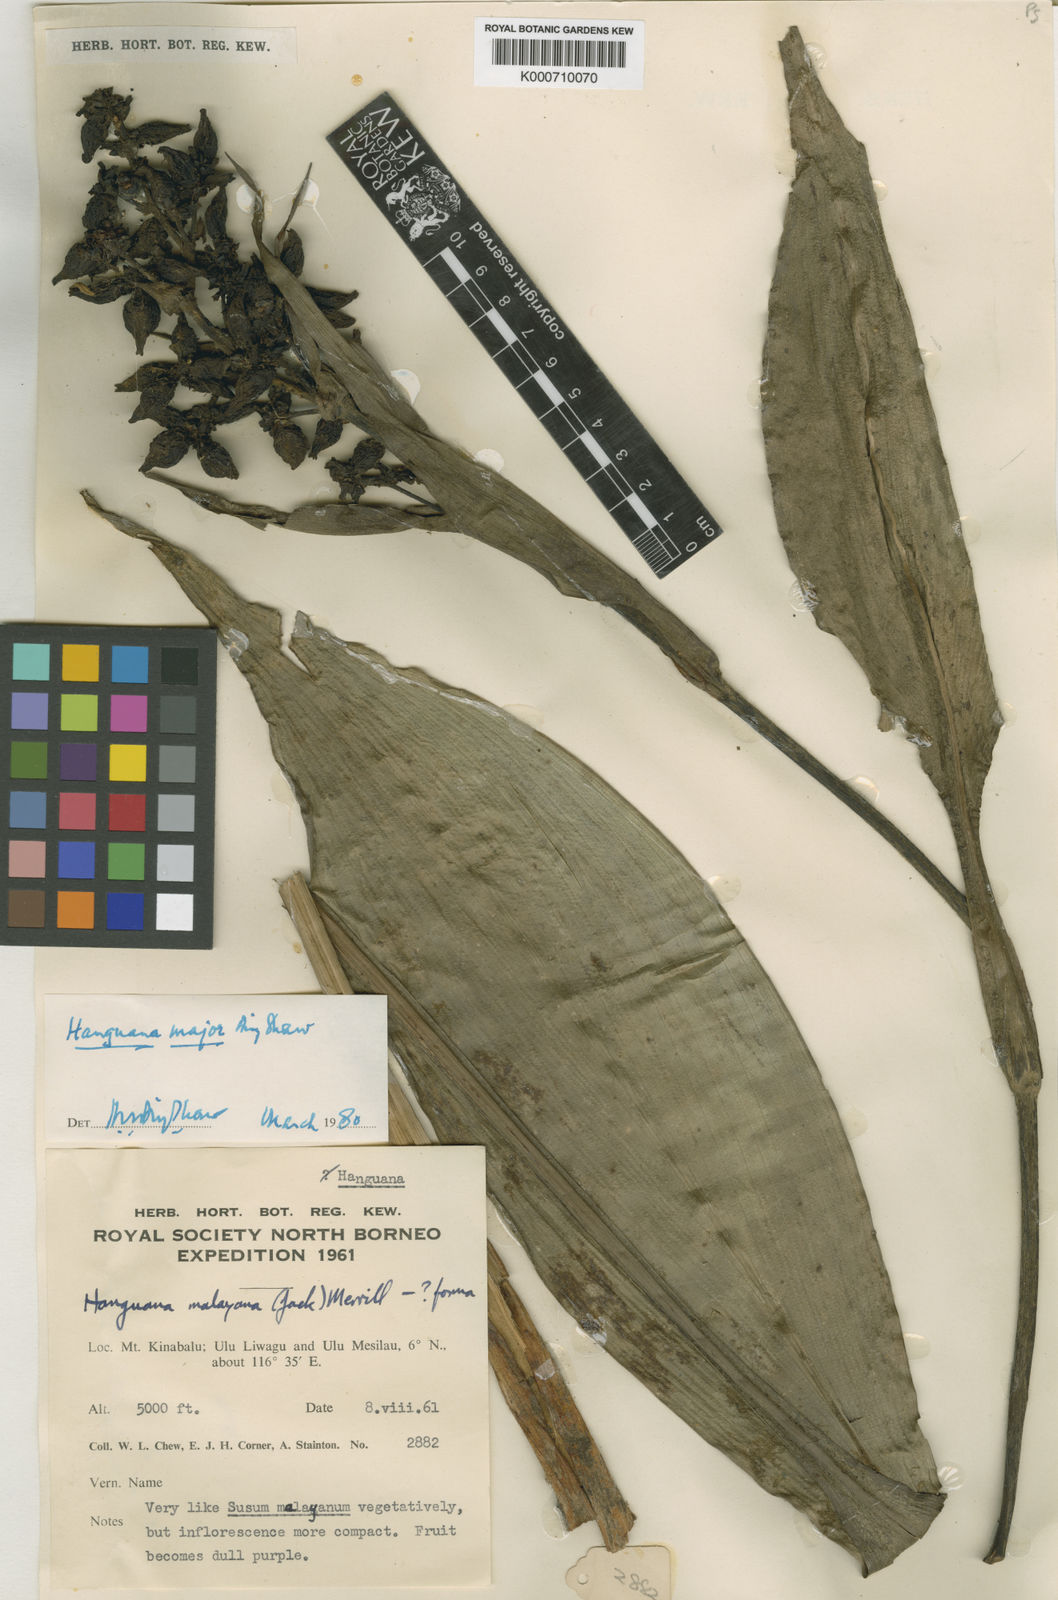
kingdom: Plantae
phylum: Tracheophyta
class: Liliopsida
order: Commelinales
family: Hanguanaceae
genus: Hanguana
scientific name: Hanguana major
